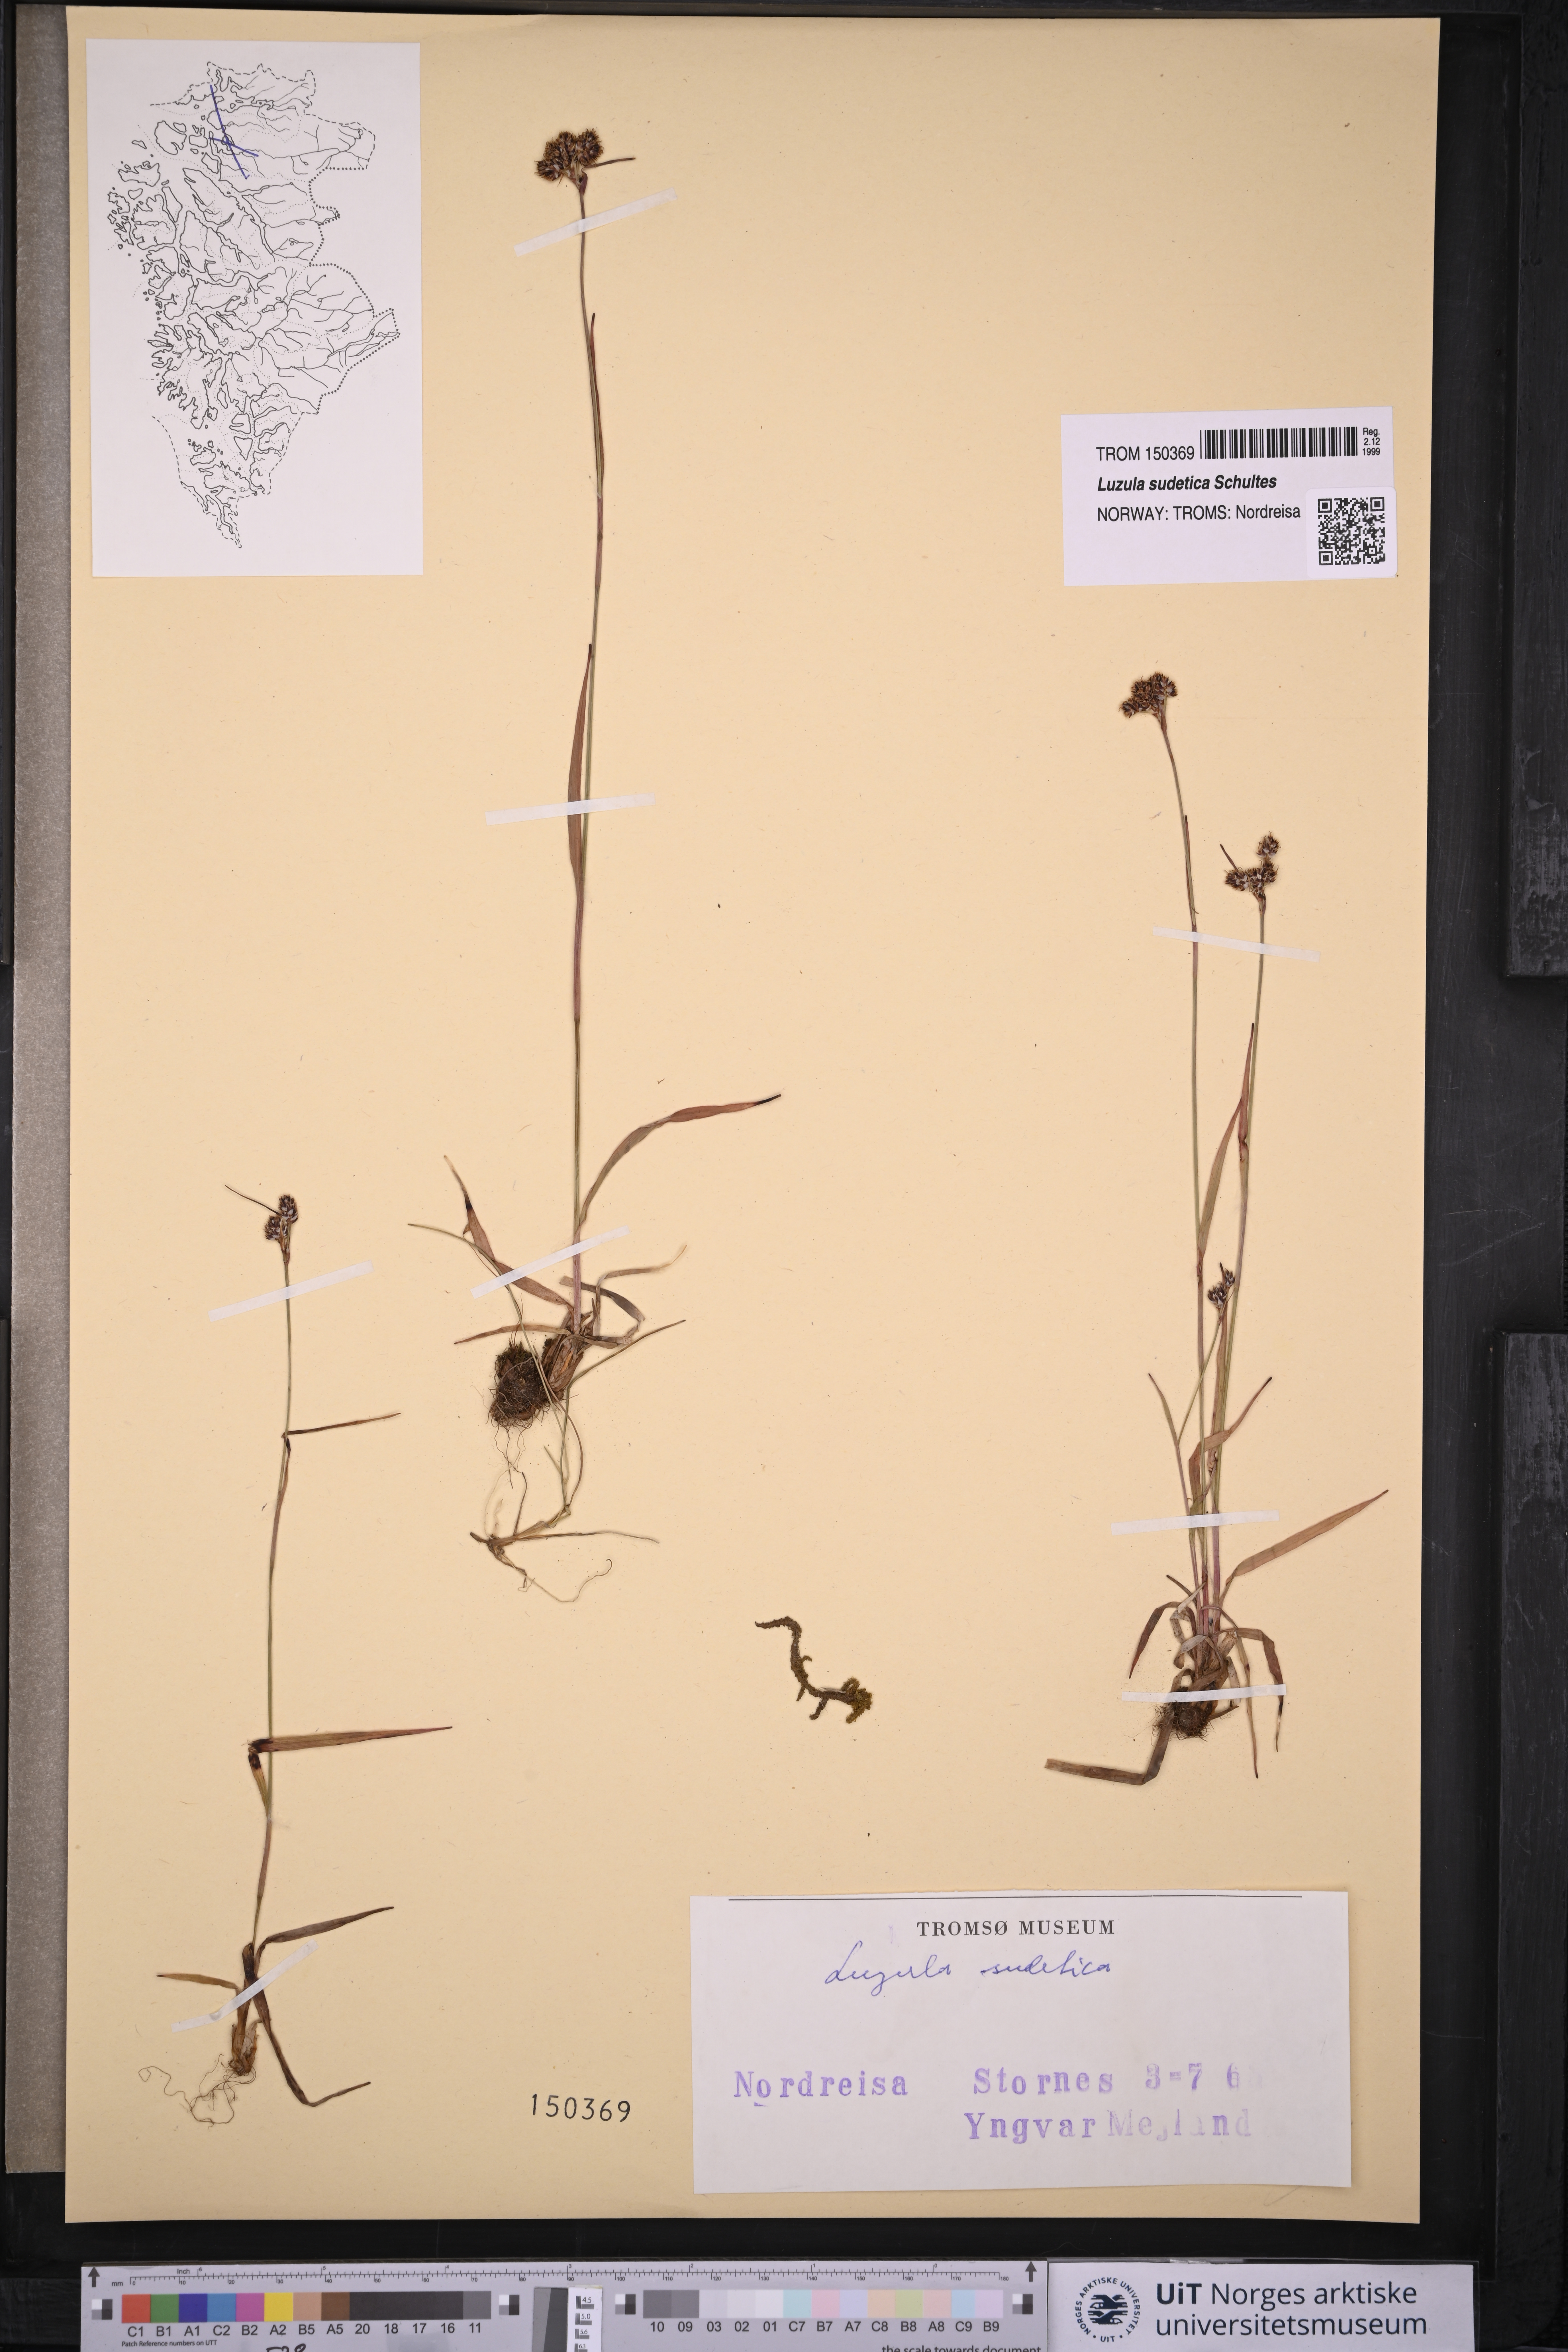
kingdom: Plantae
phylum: Tracheophyta
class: Liliopsida
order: Poales
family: Juncaceae
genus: Luzula
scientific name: Luzula sudetica
